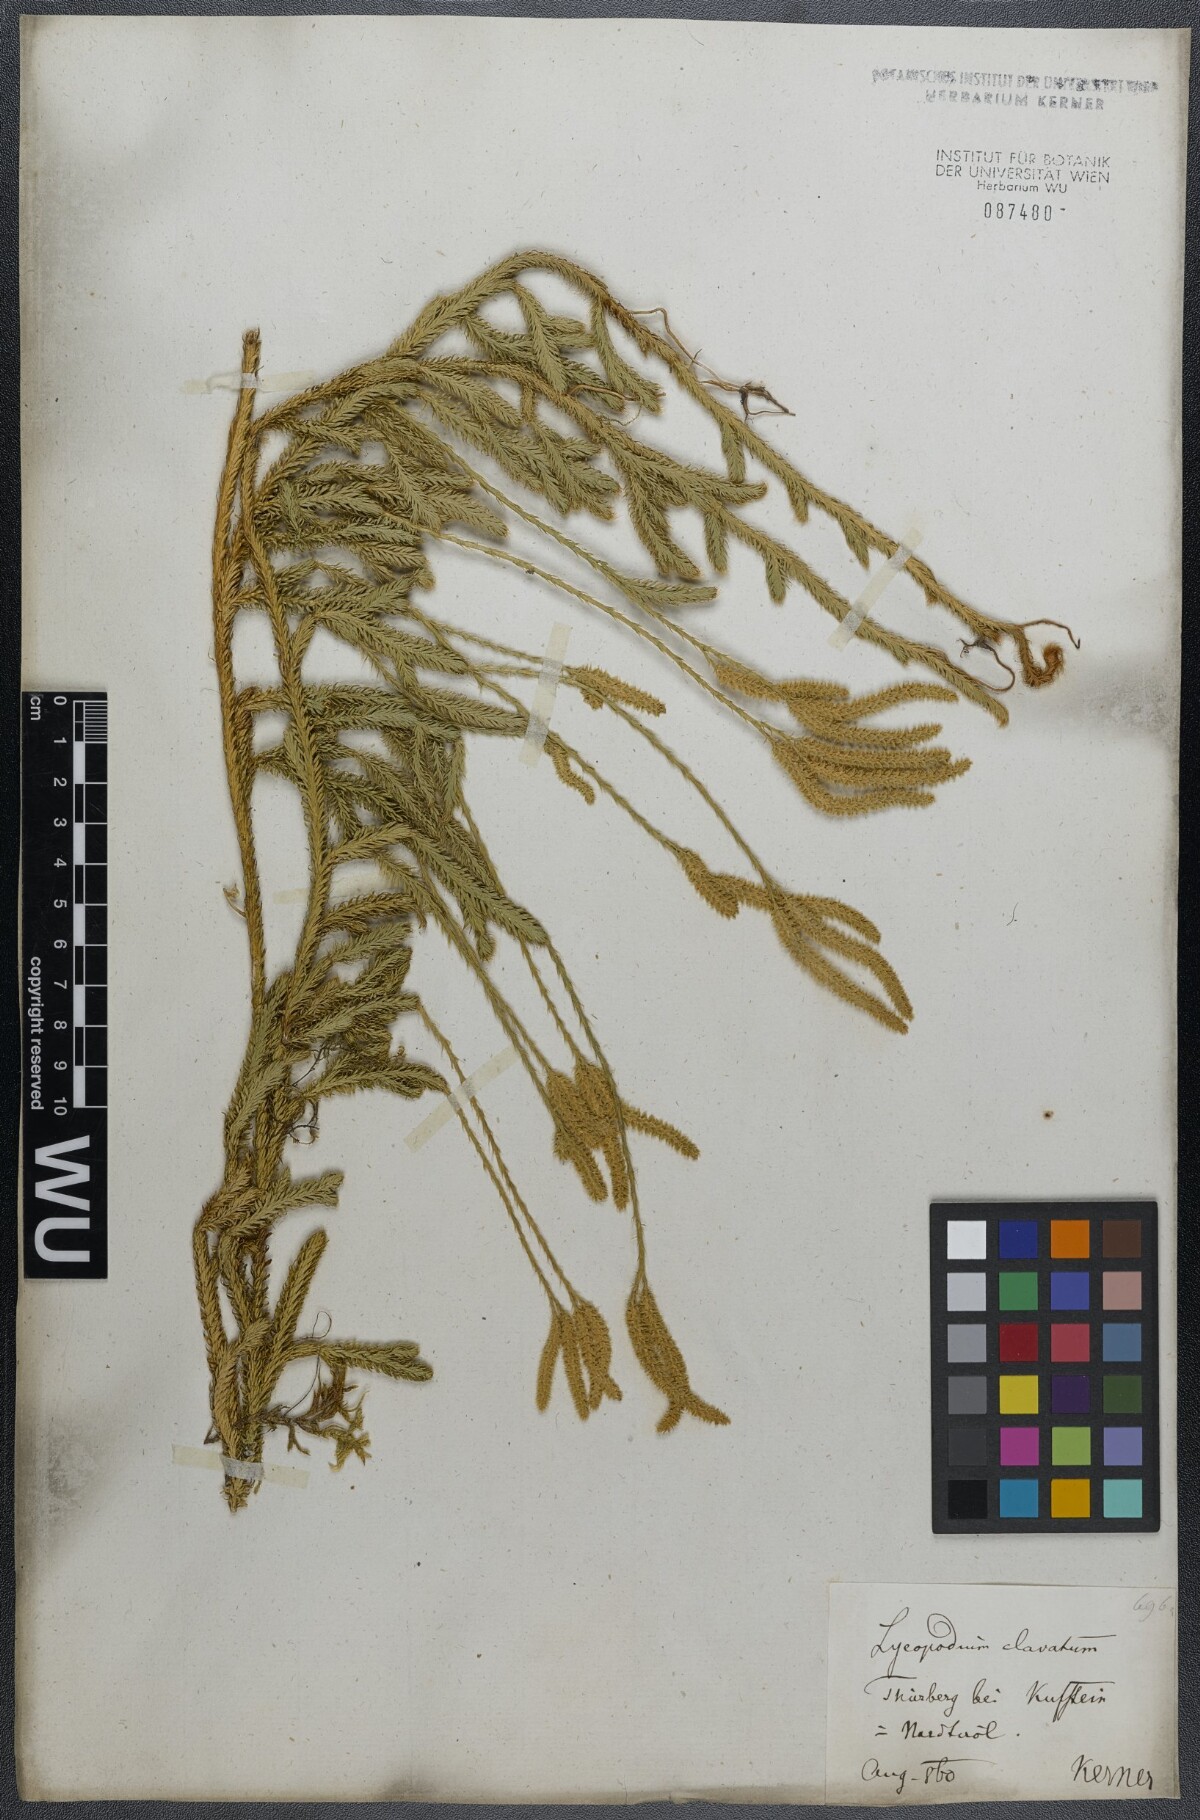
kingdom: Plantae
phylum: Tracheophyta
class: Lycopodiopsida
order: Lycopodiales
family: Lycopodiaceae
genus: Lycopodium
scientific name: Lycopodium clavatum
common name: Stag's-horn clubmoss
